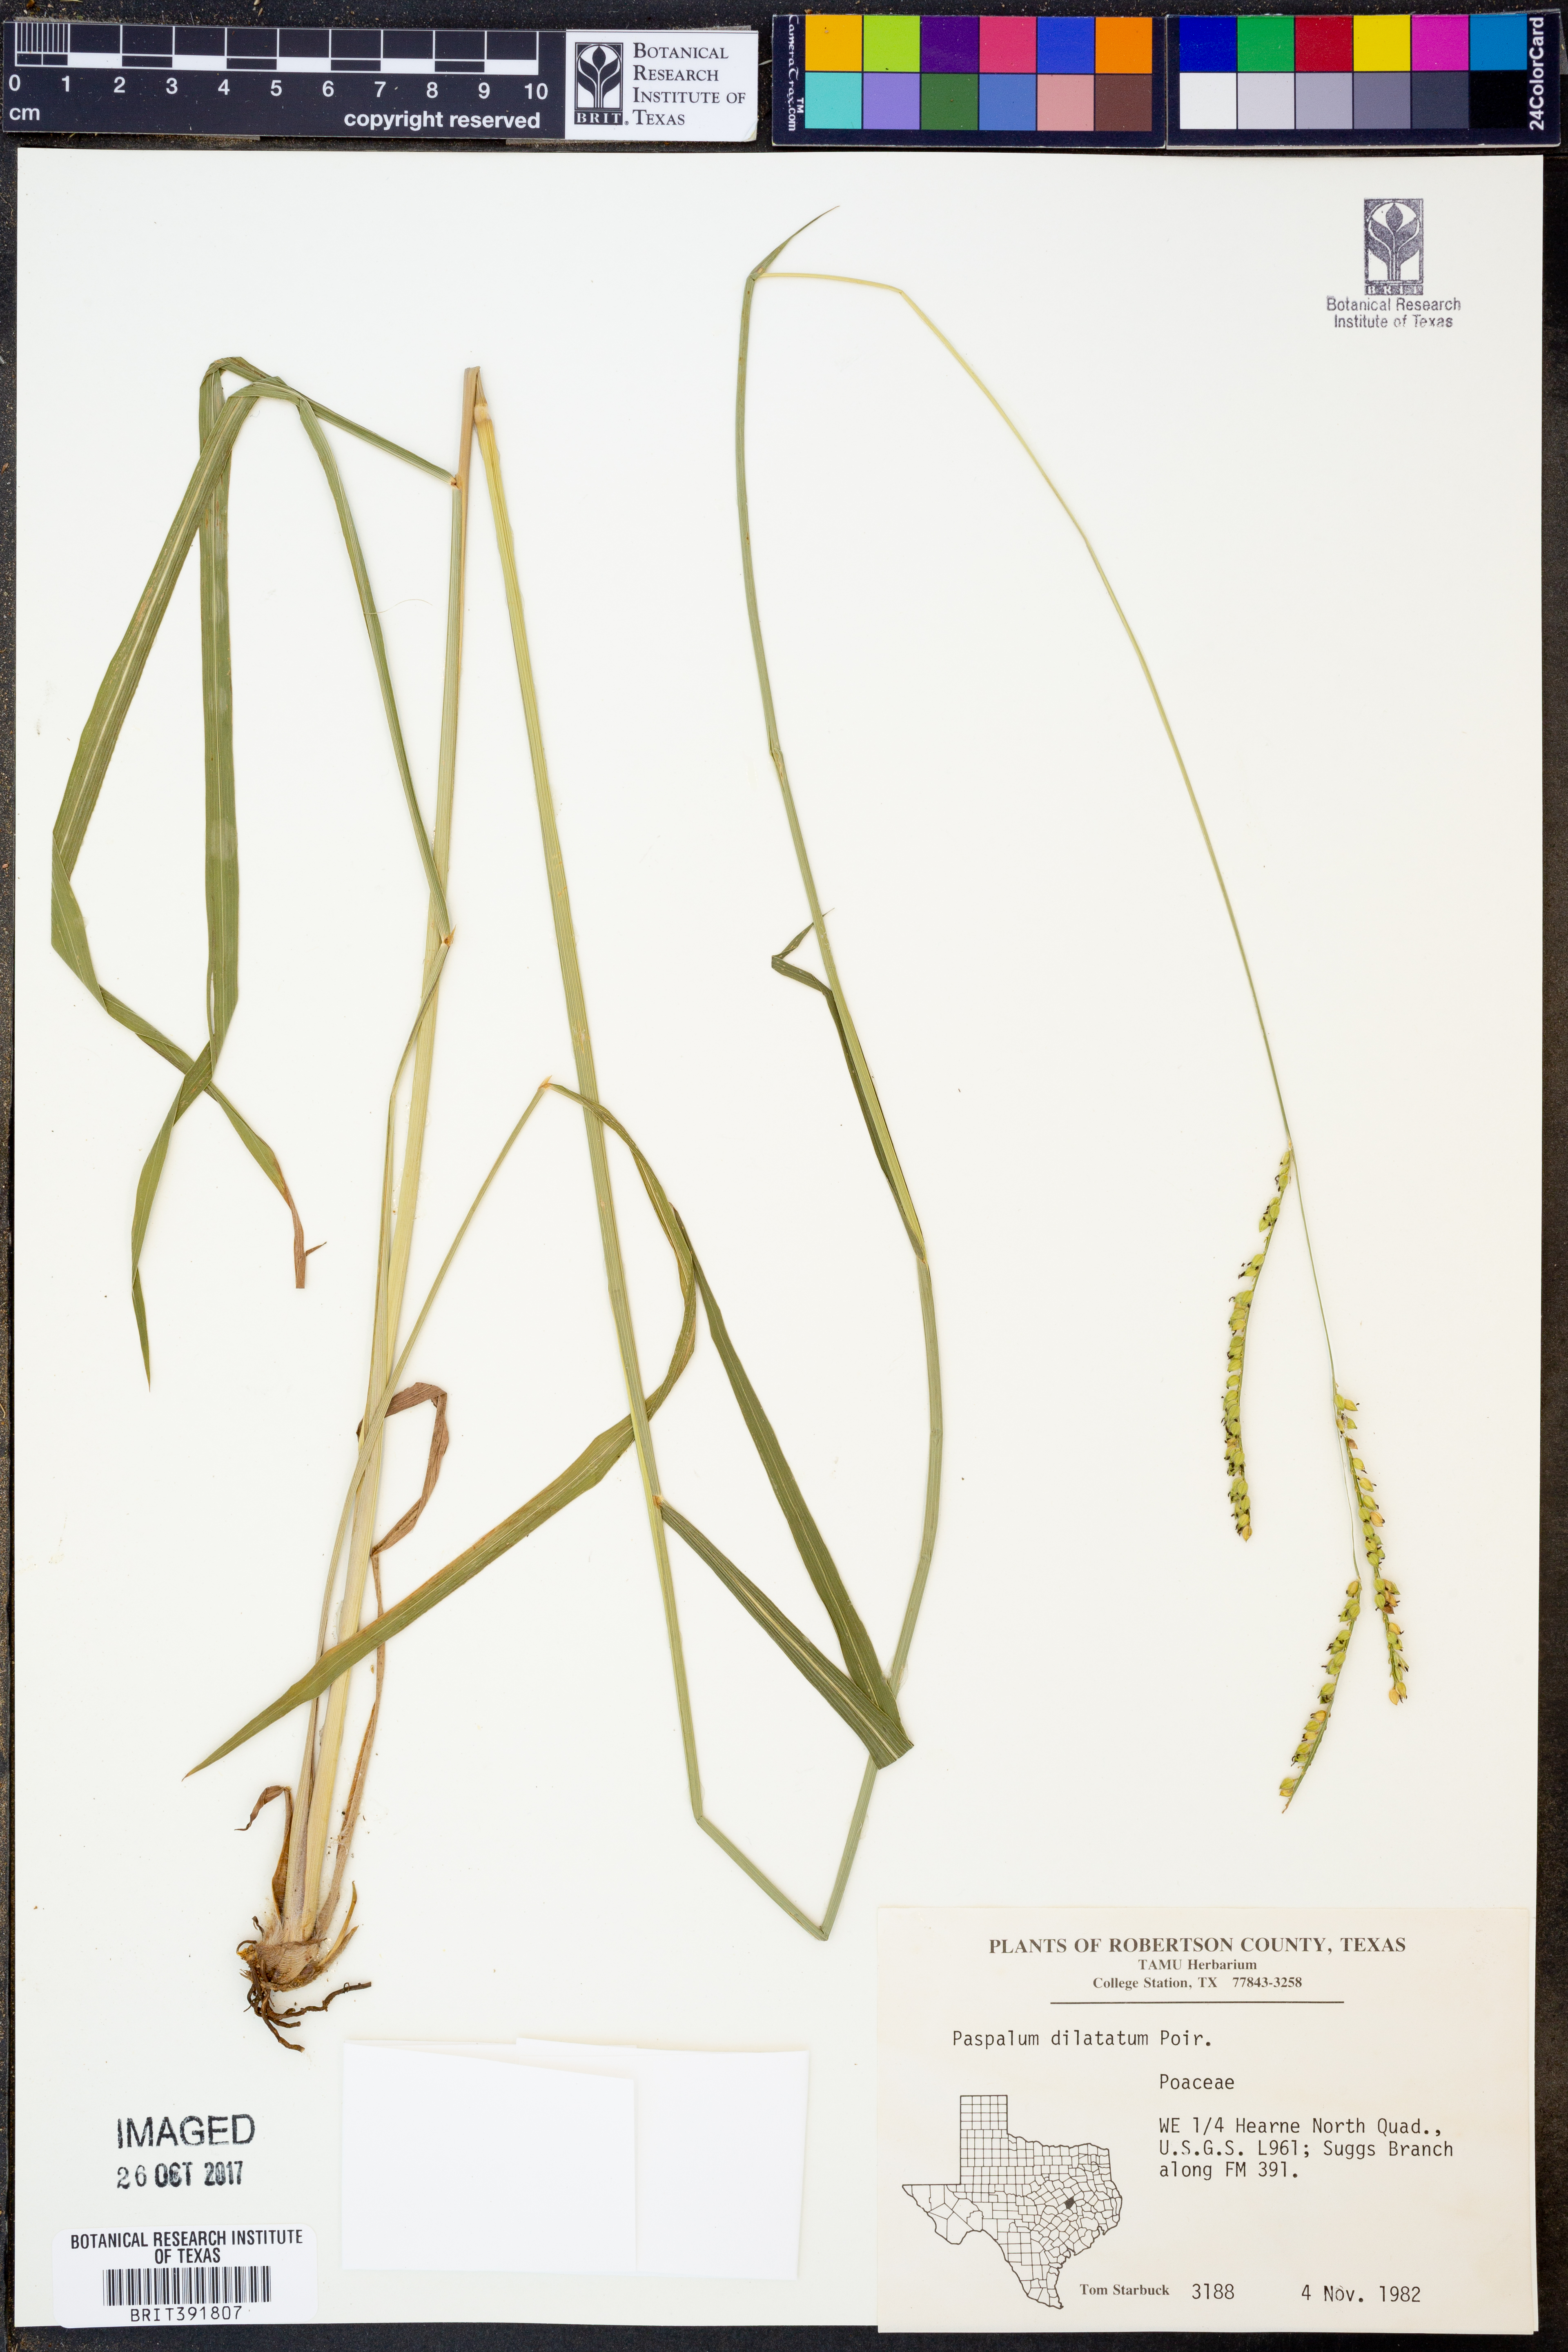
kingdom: Plantae
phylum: Tracheophyta
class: Liliopsida
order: Poales
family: Poaceae
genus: Paspalum
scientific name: Paspalum dilatatum
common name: Dallisgrass
